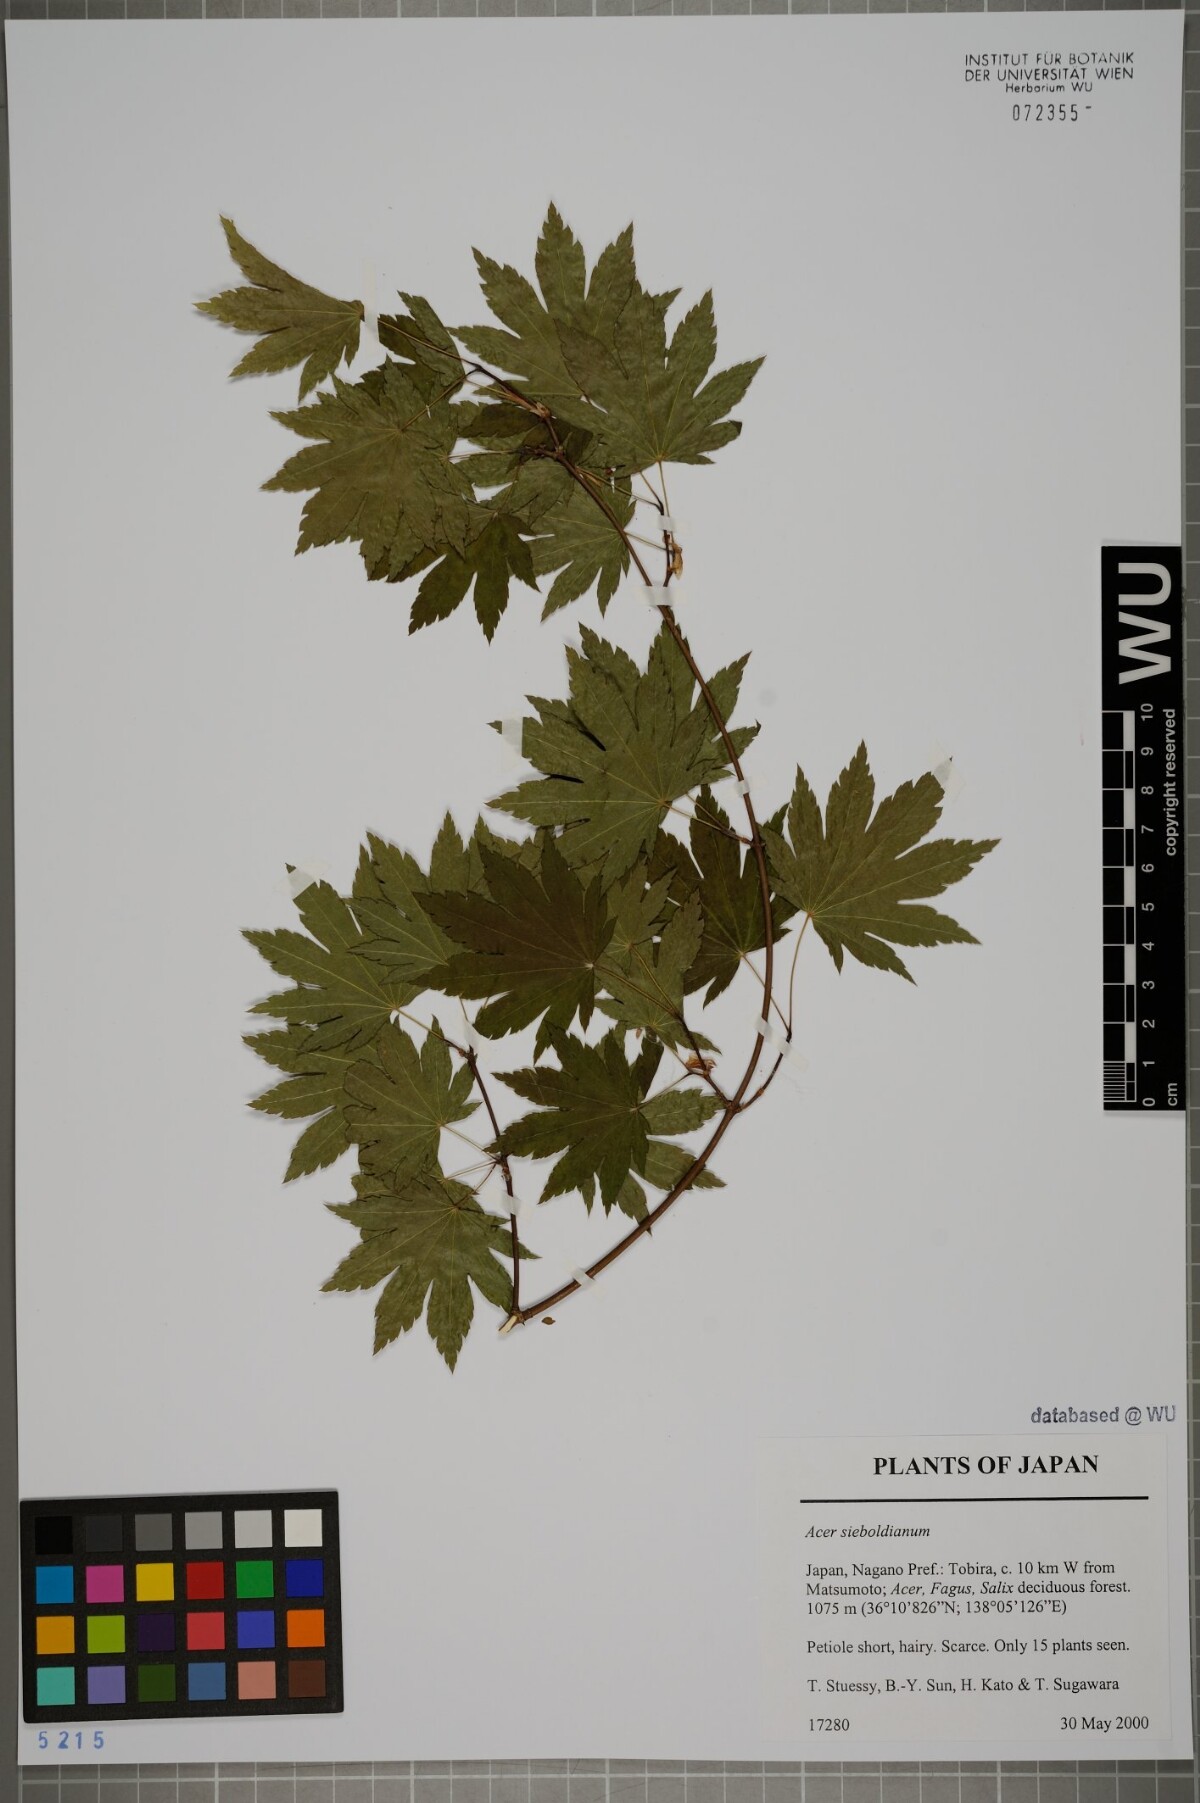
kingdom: Plantae
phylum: Tracheophyta
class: Magnoliopsida
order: Sapindales
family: Sapindaceae
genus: Acer
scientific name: Acer sieboldianum
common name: Siebold's maple
